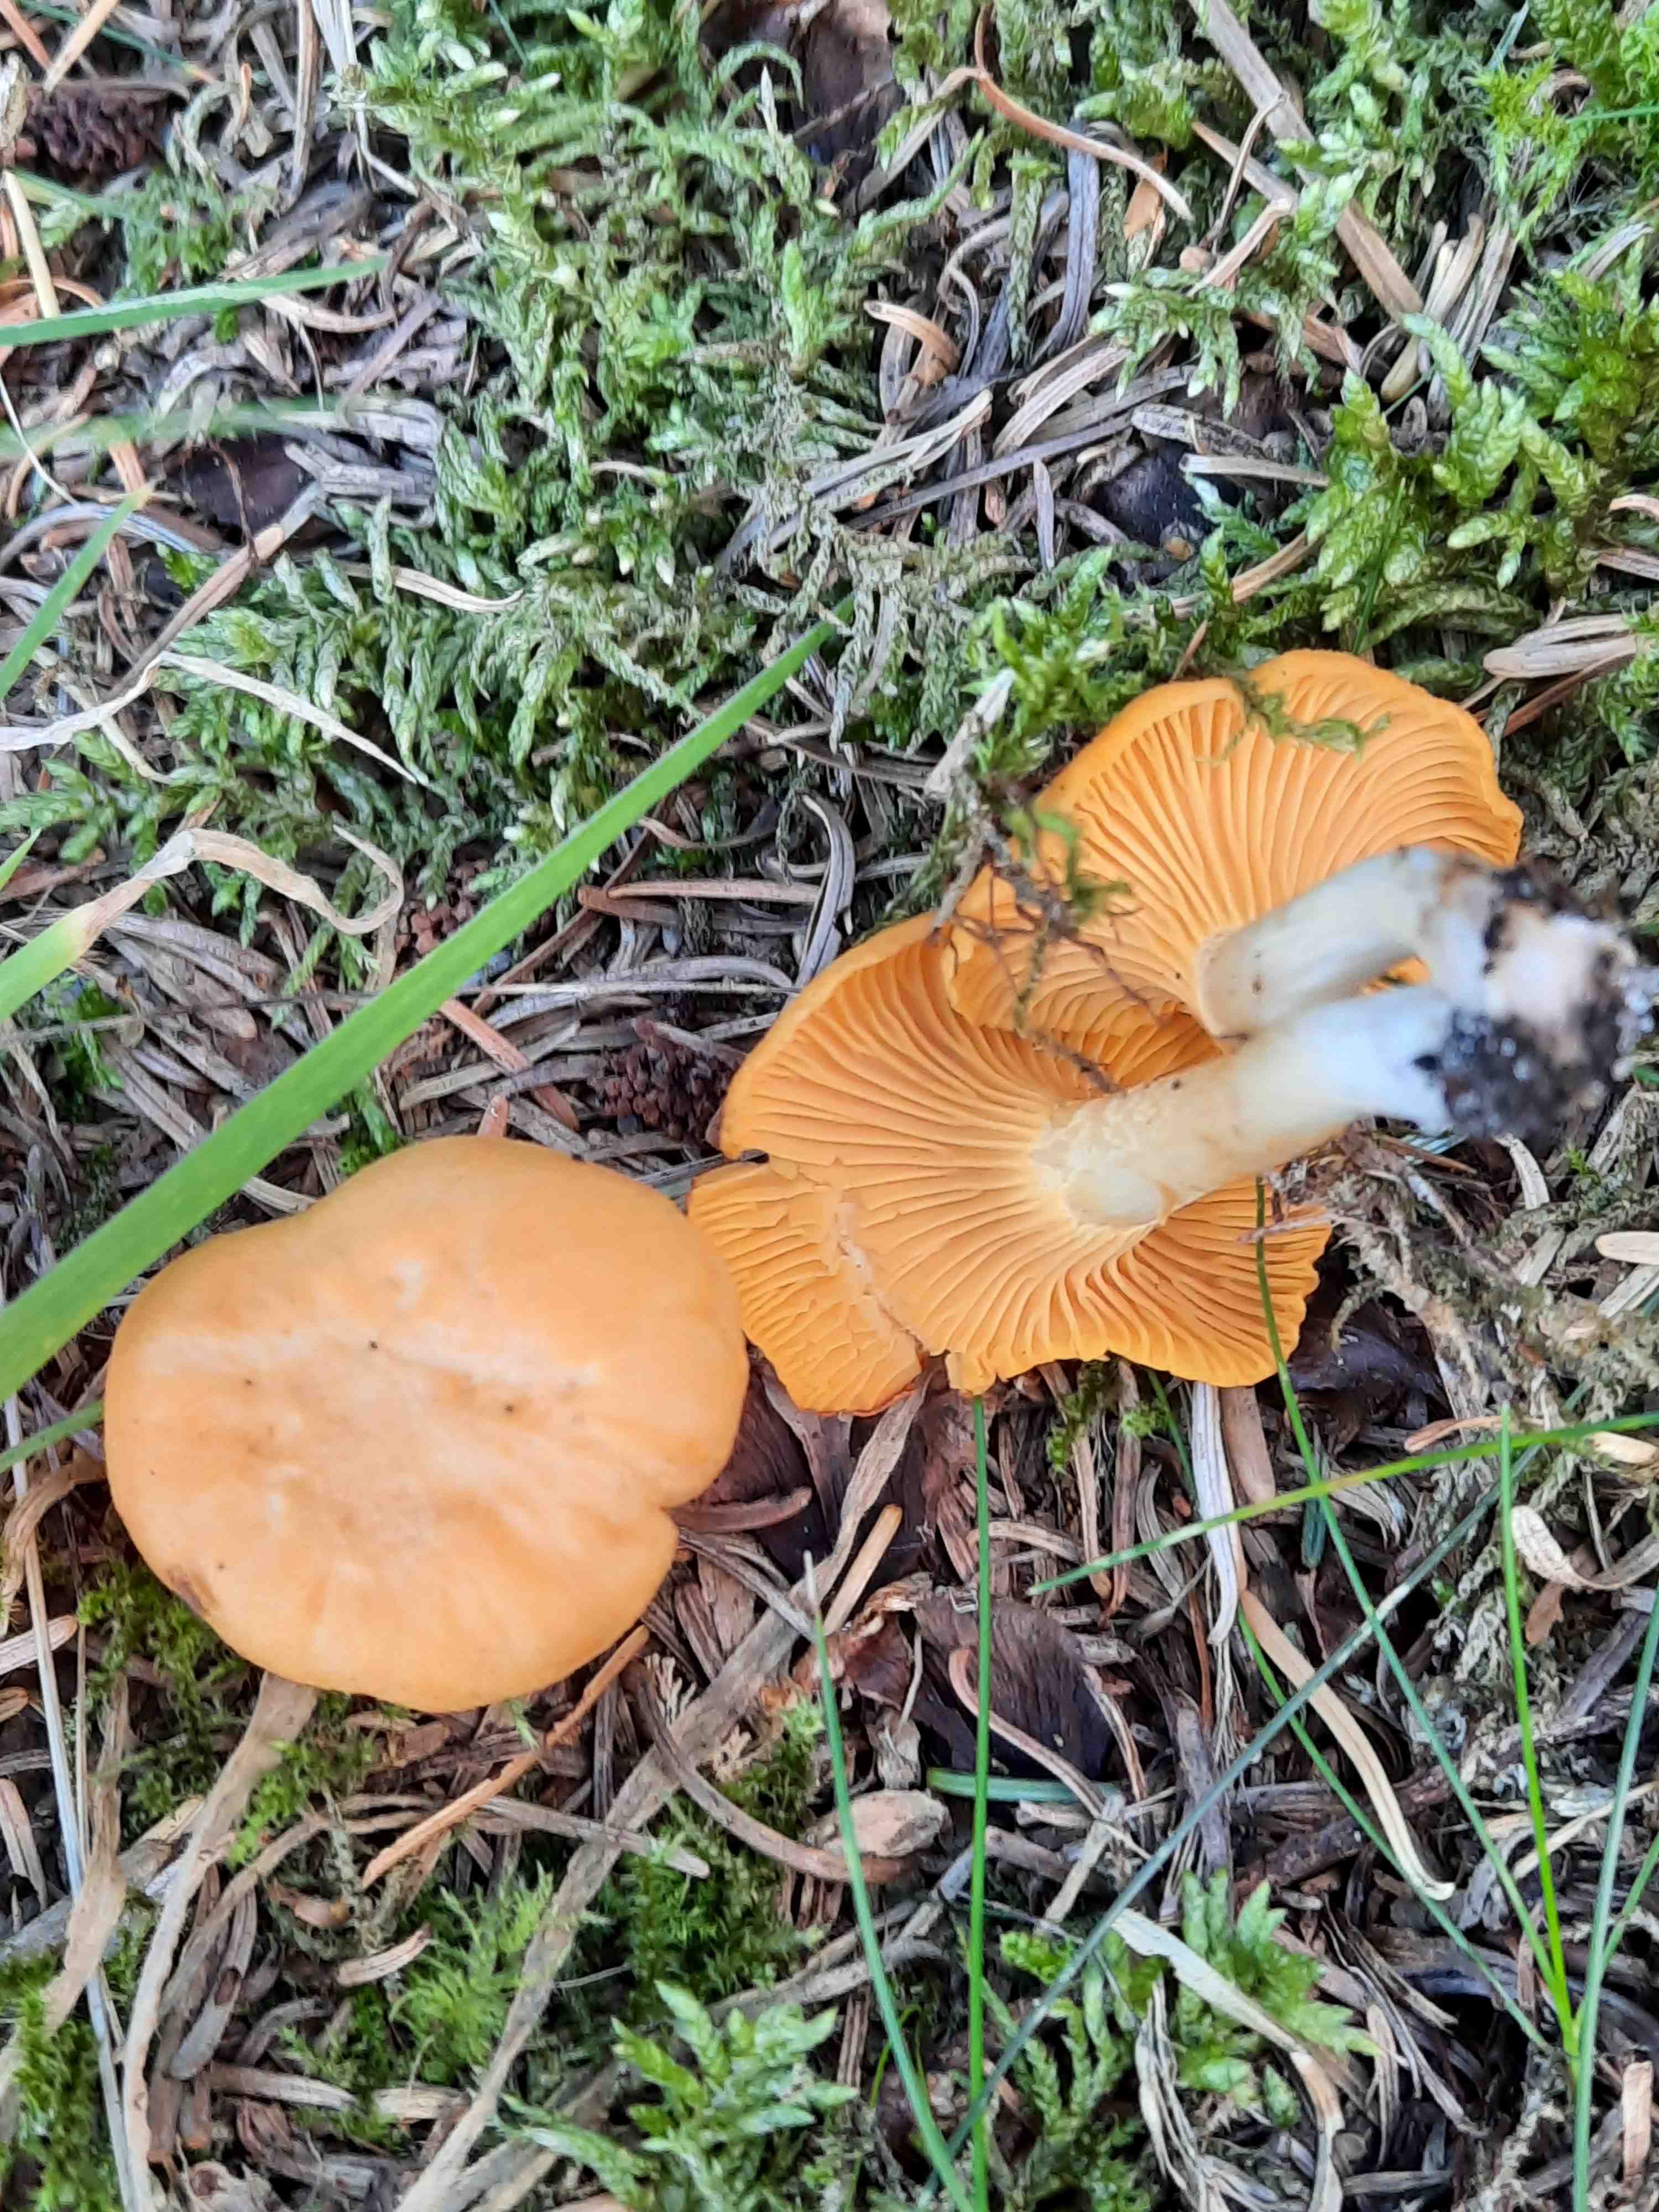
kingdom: Fungi
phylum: Basidiomycota
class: Agaricomycetes
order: Cantharellales
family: Hydnaceae
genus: Cantharellus
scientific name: Cantharellus cibarius
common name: almindelig kantarel
